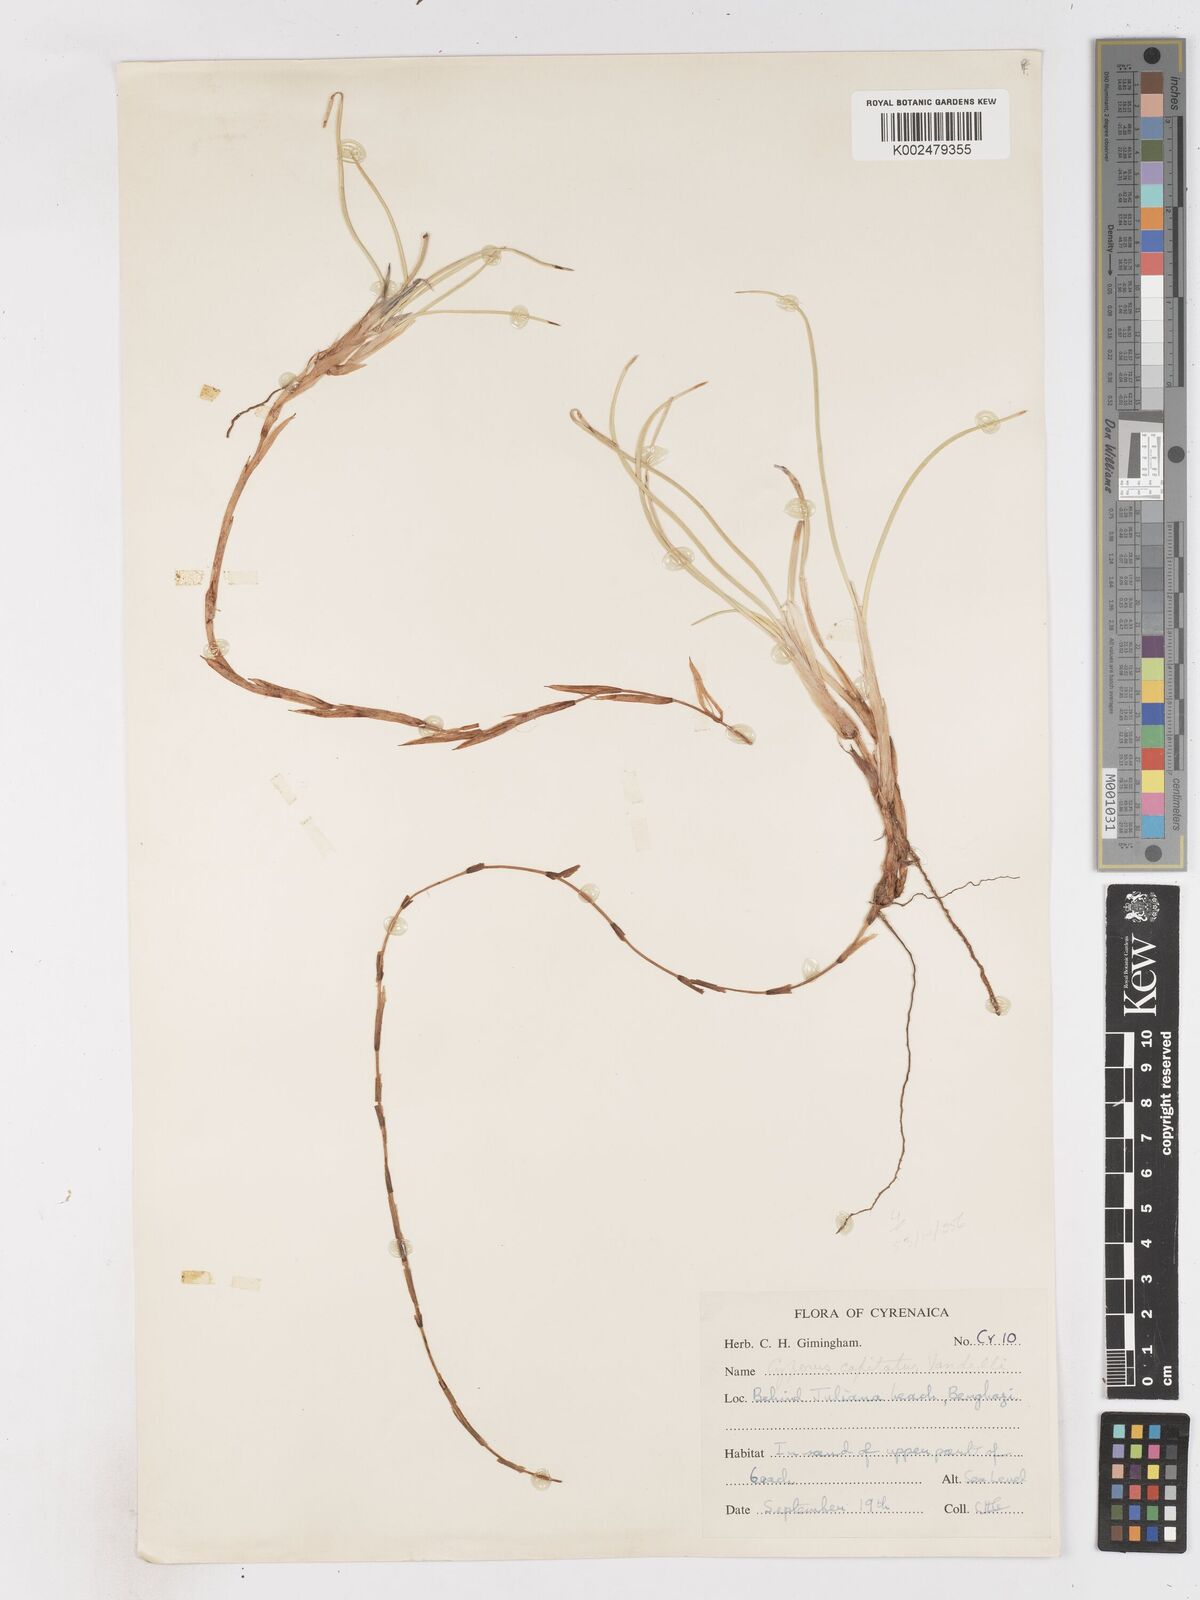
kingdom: Plantae
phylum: Tracheophyta
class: Liliopsida
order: Poales
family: Cyperaceae
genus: Cyperus
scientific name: Cyperus capitatus
